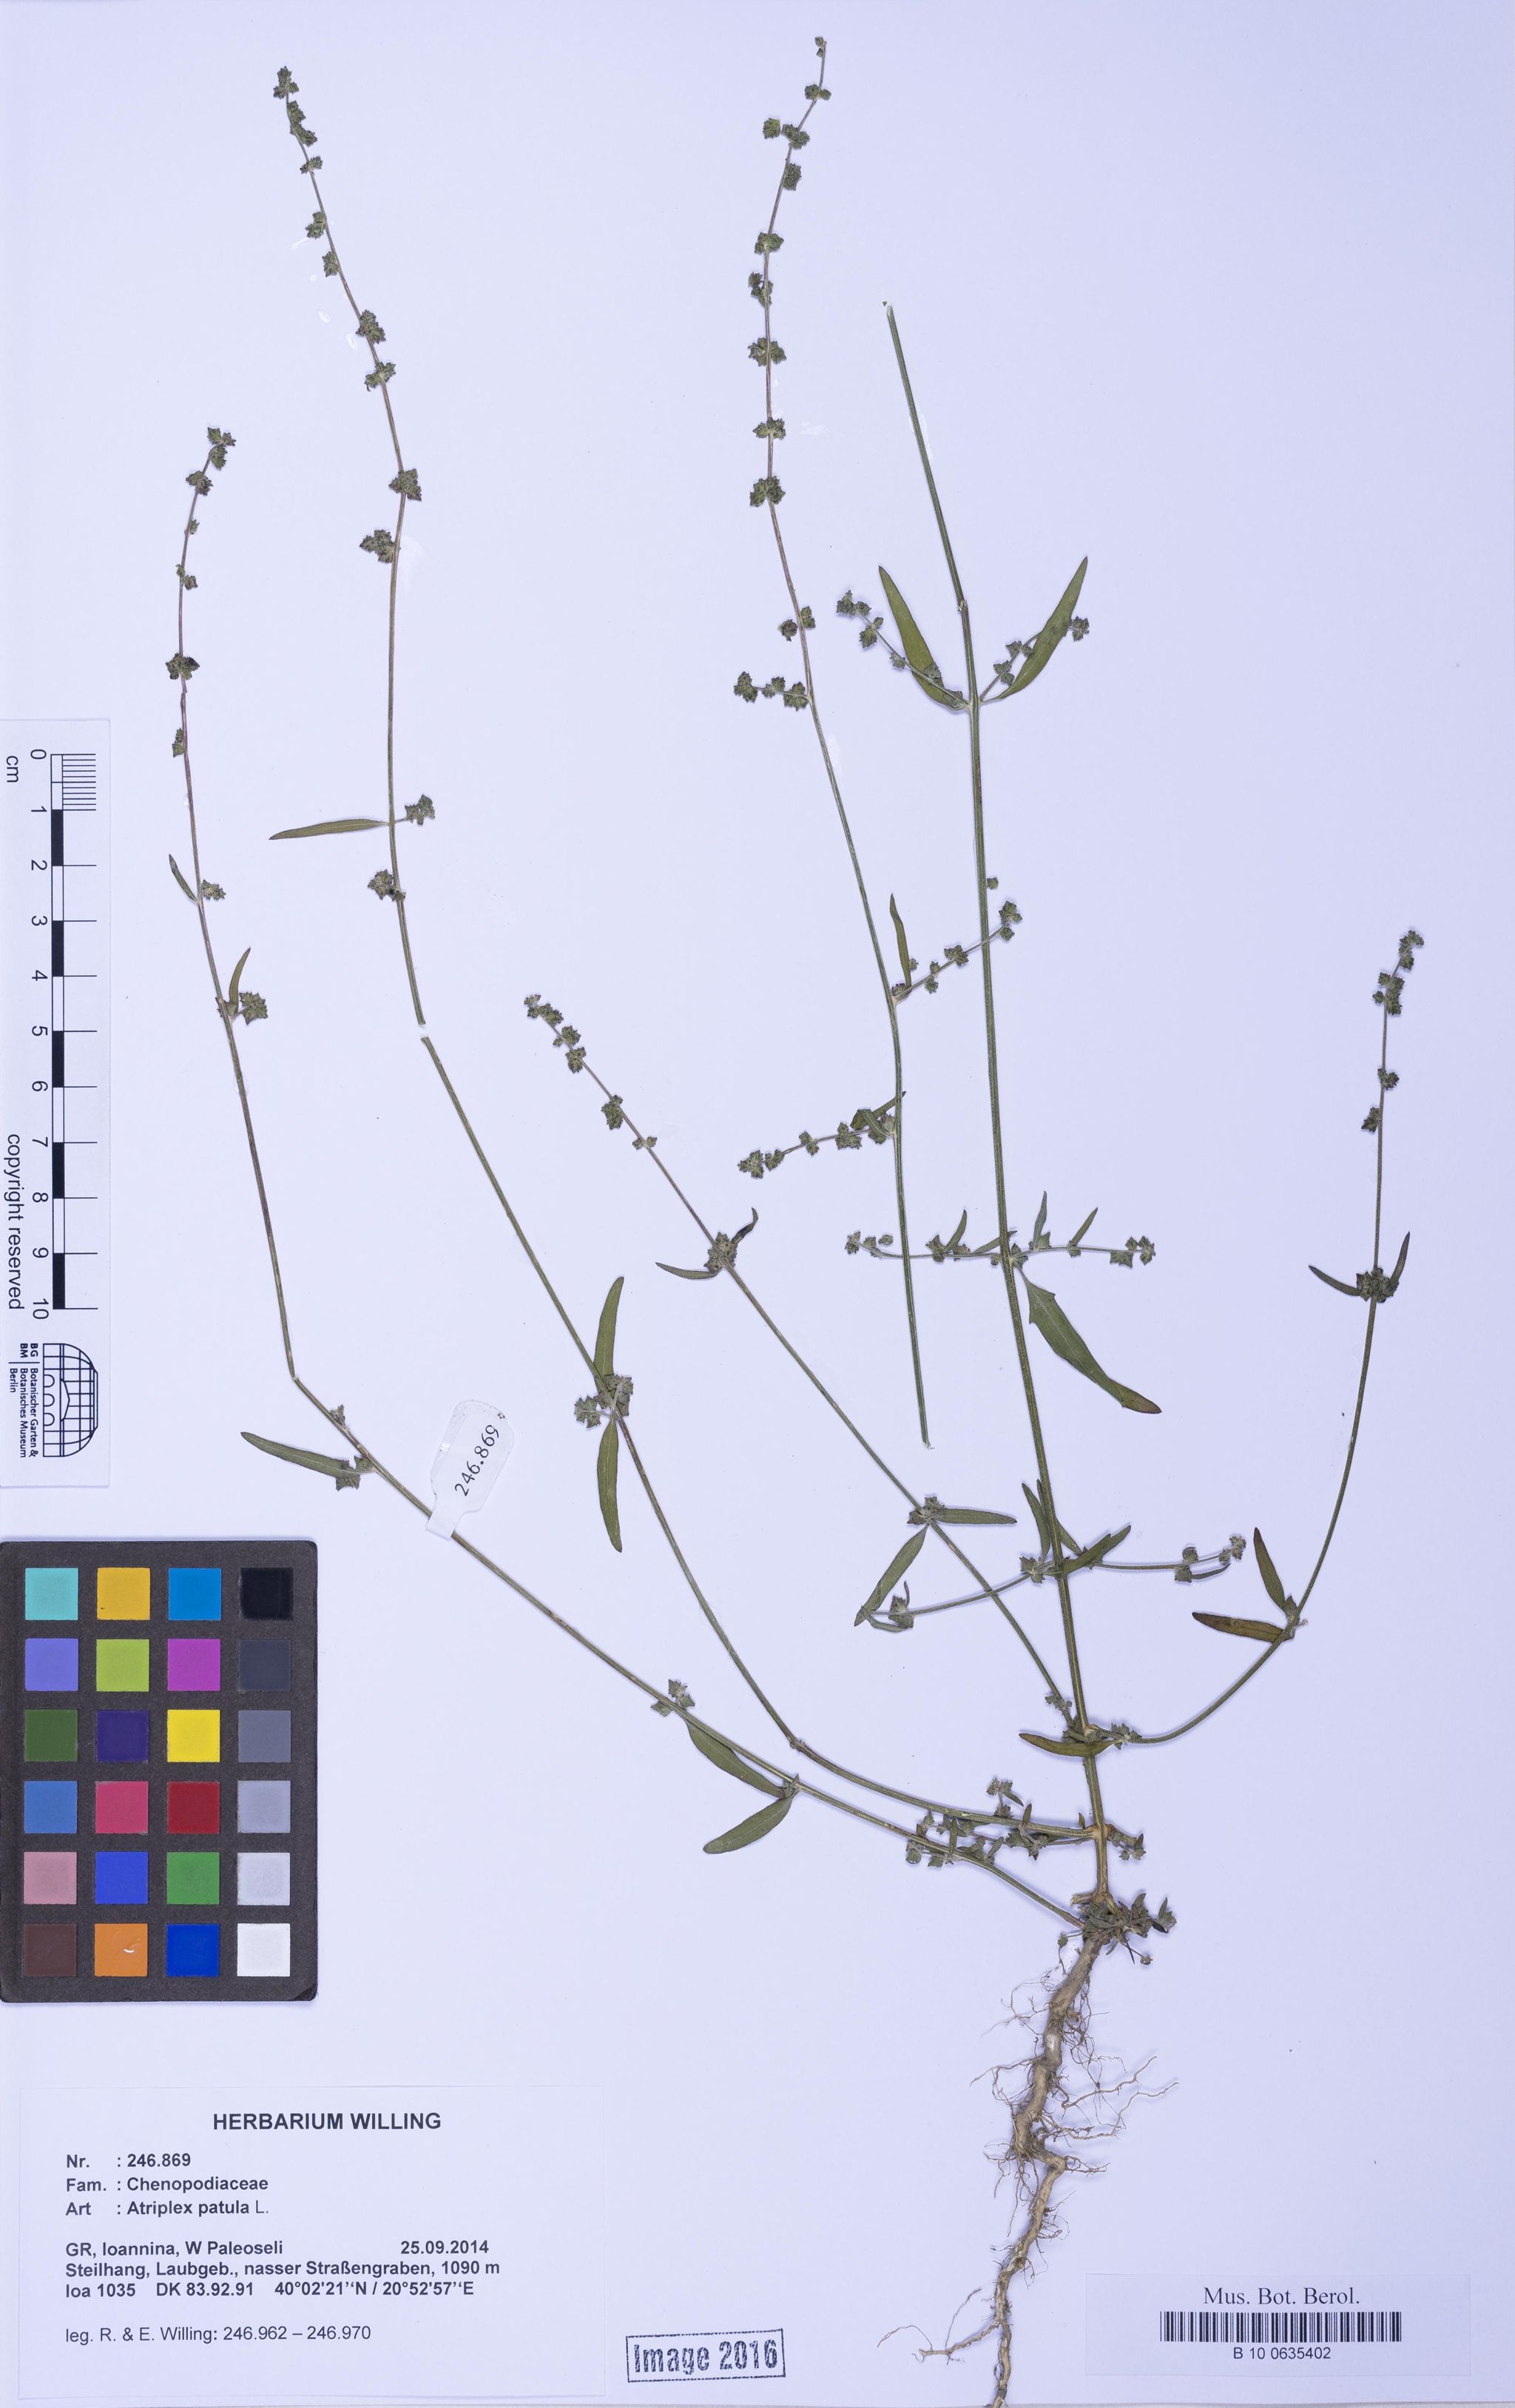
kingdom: Plantae
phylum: Tracheophyta
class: Magnoliopsida
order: Caryophyllales
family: Amaranthaceae
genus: Atriplex
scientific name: Atriplex patula
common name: Common orache
